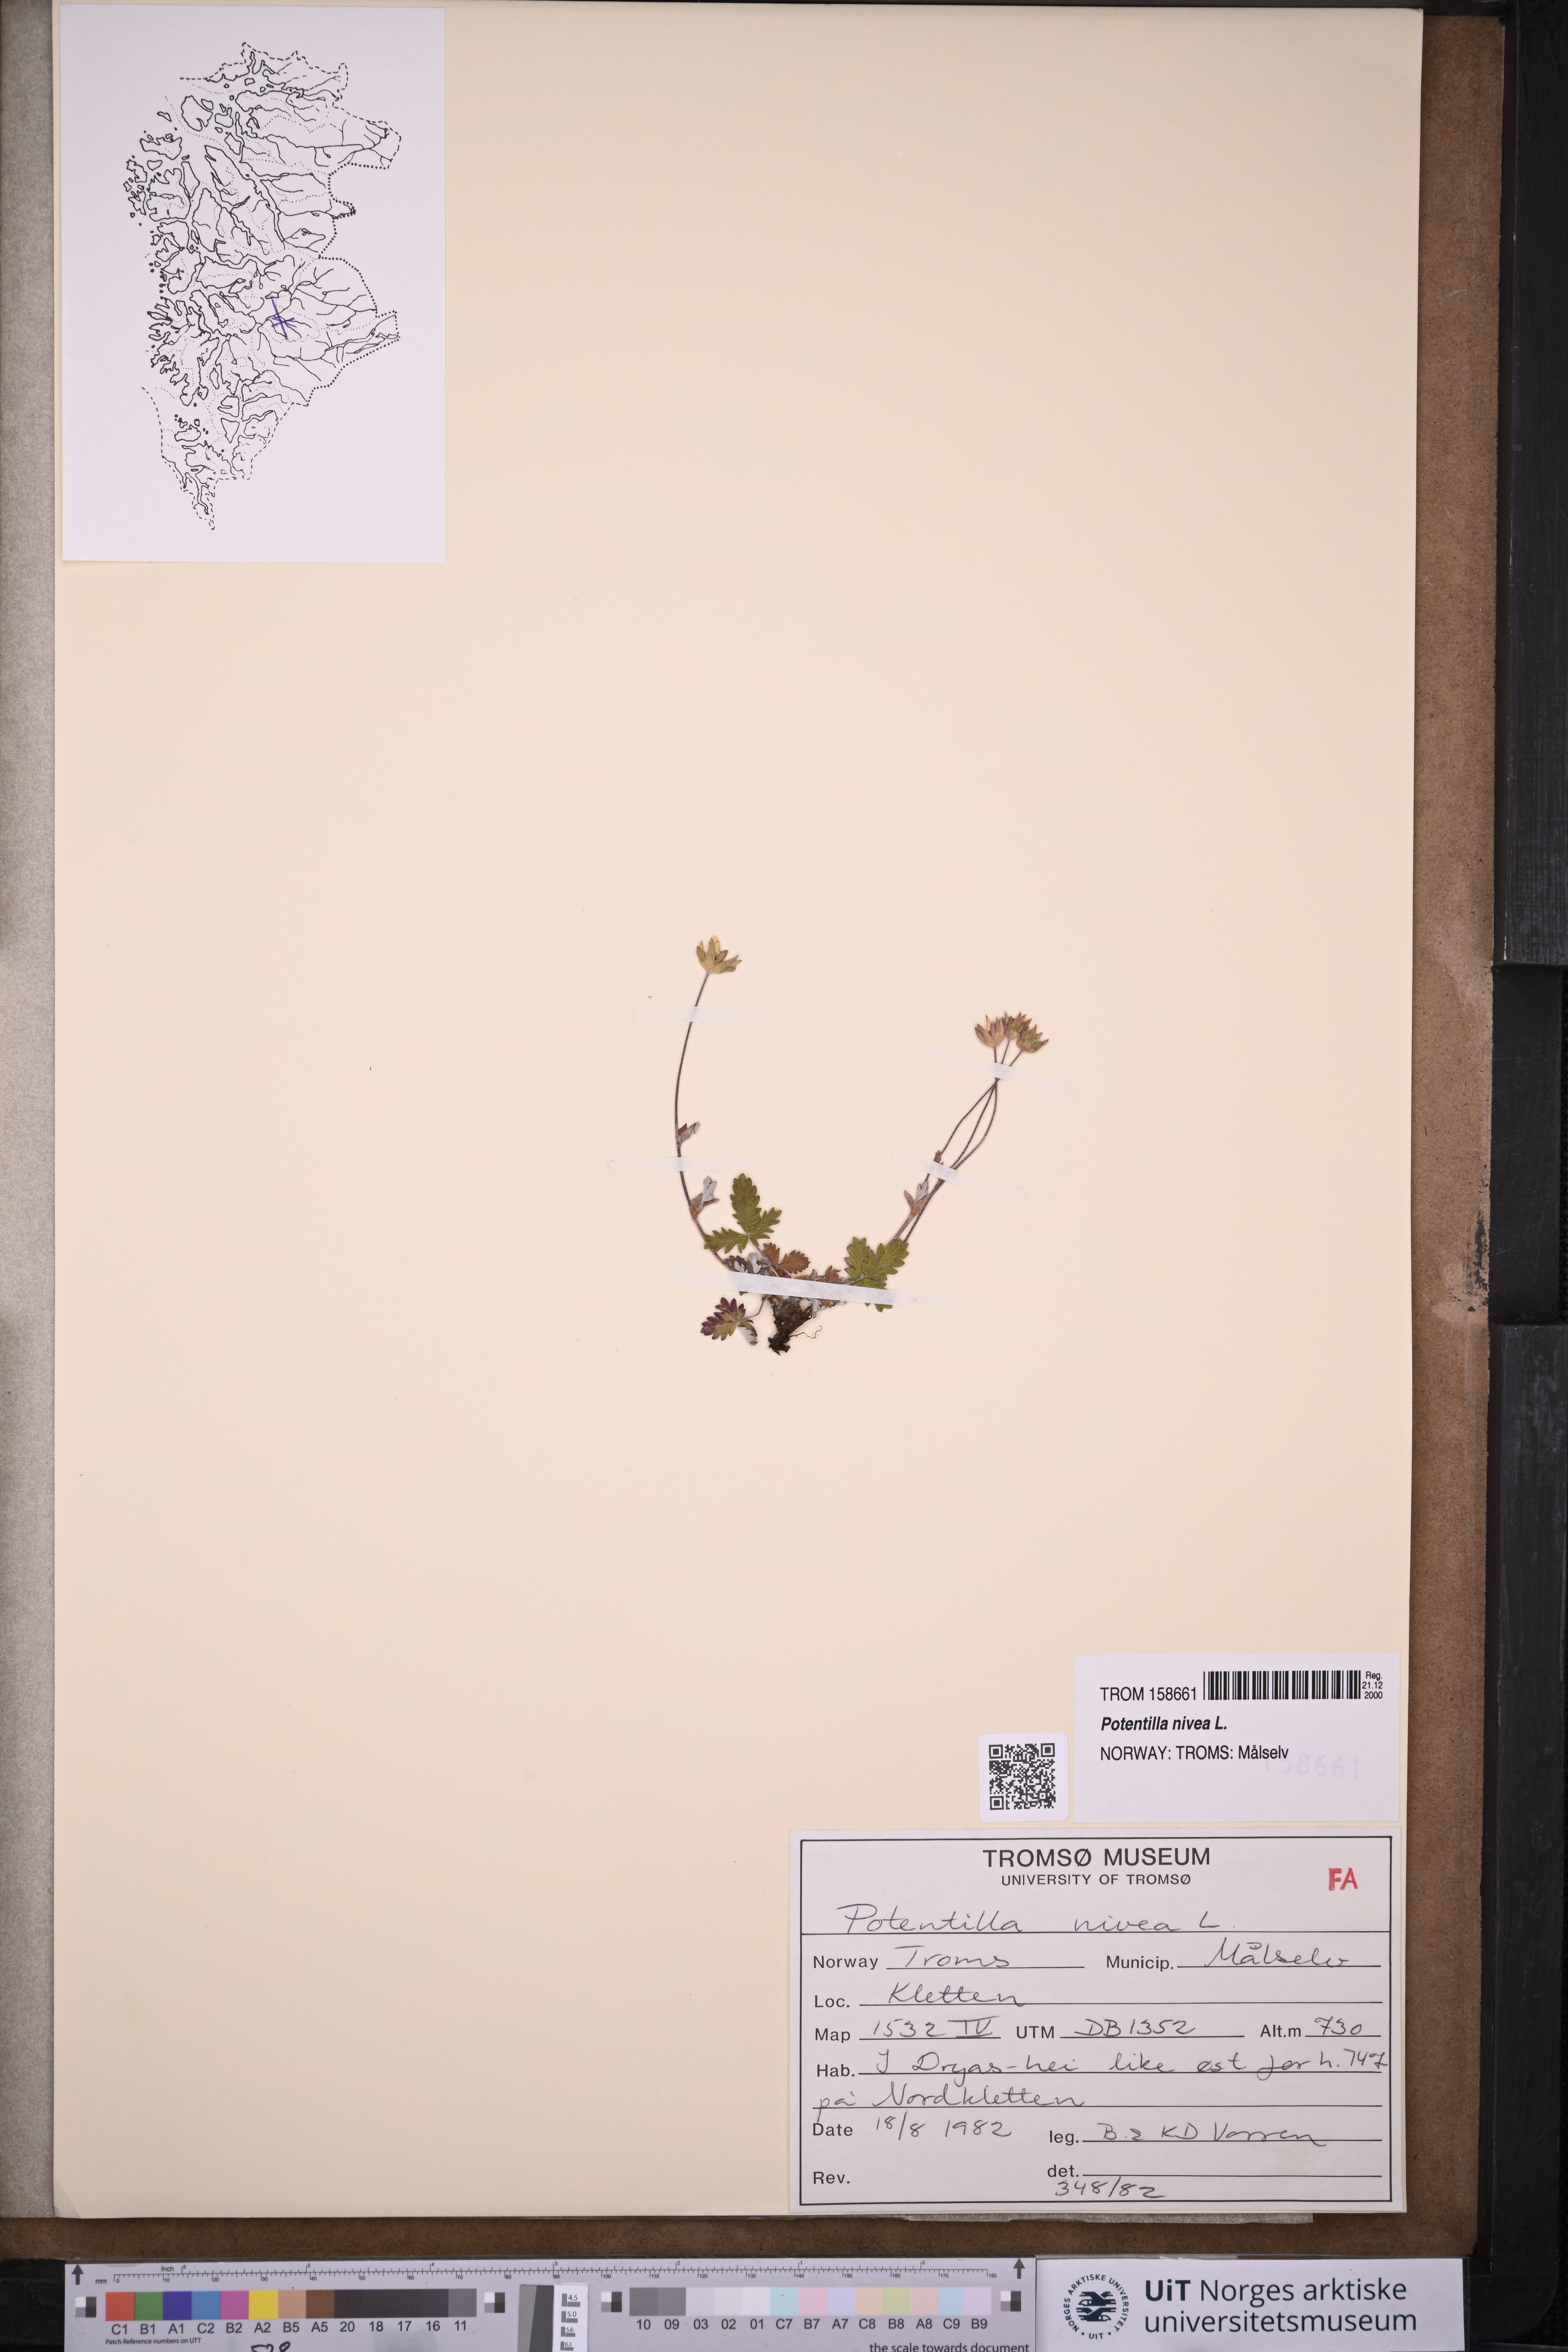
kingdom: Plantae
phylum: Tracheophyta
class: Magnoliopsida
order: Rosales
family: Rosaceae
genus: Potentilla
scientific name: Potentilla arenosa
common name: Bluff cinquefoil
